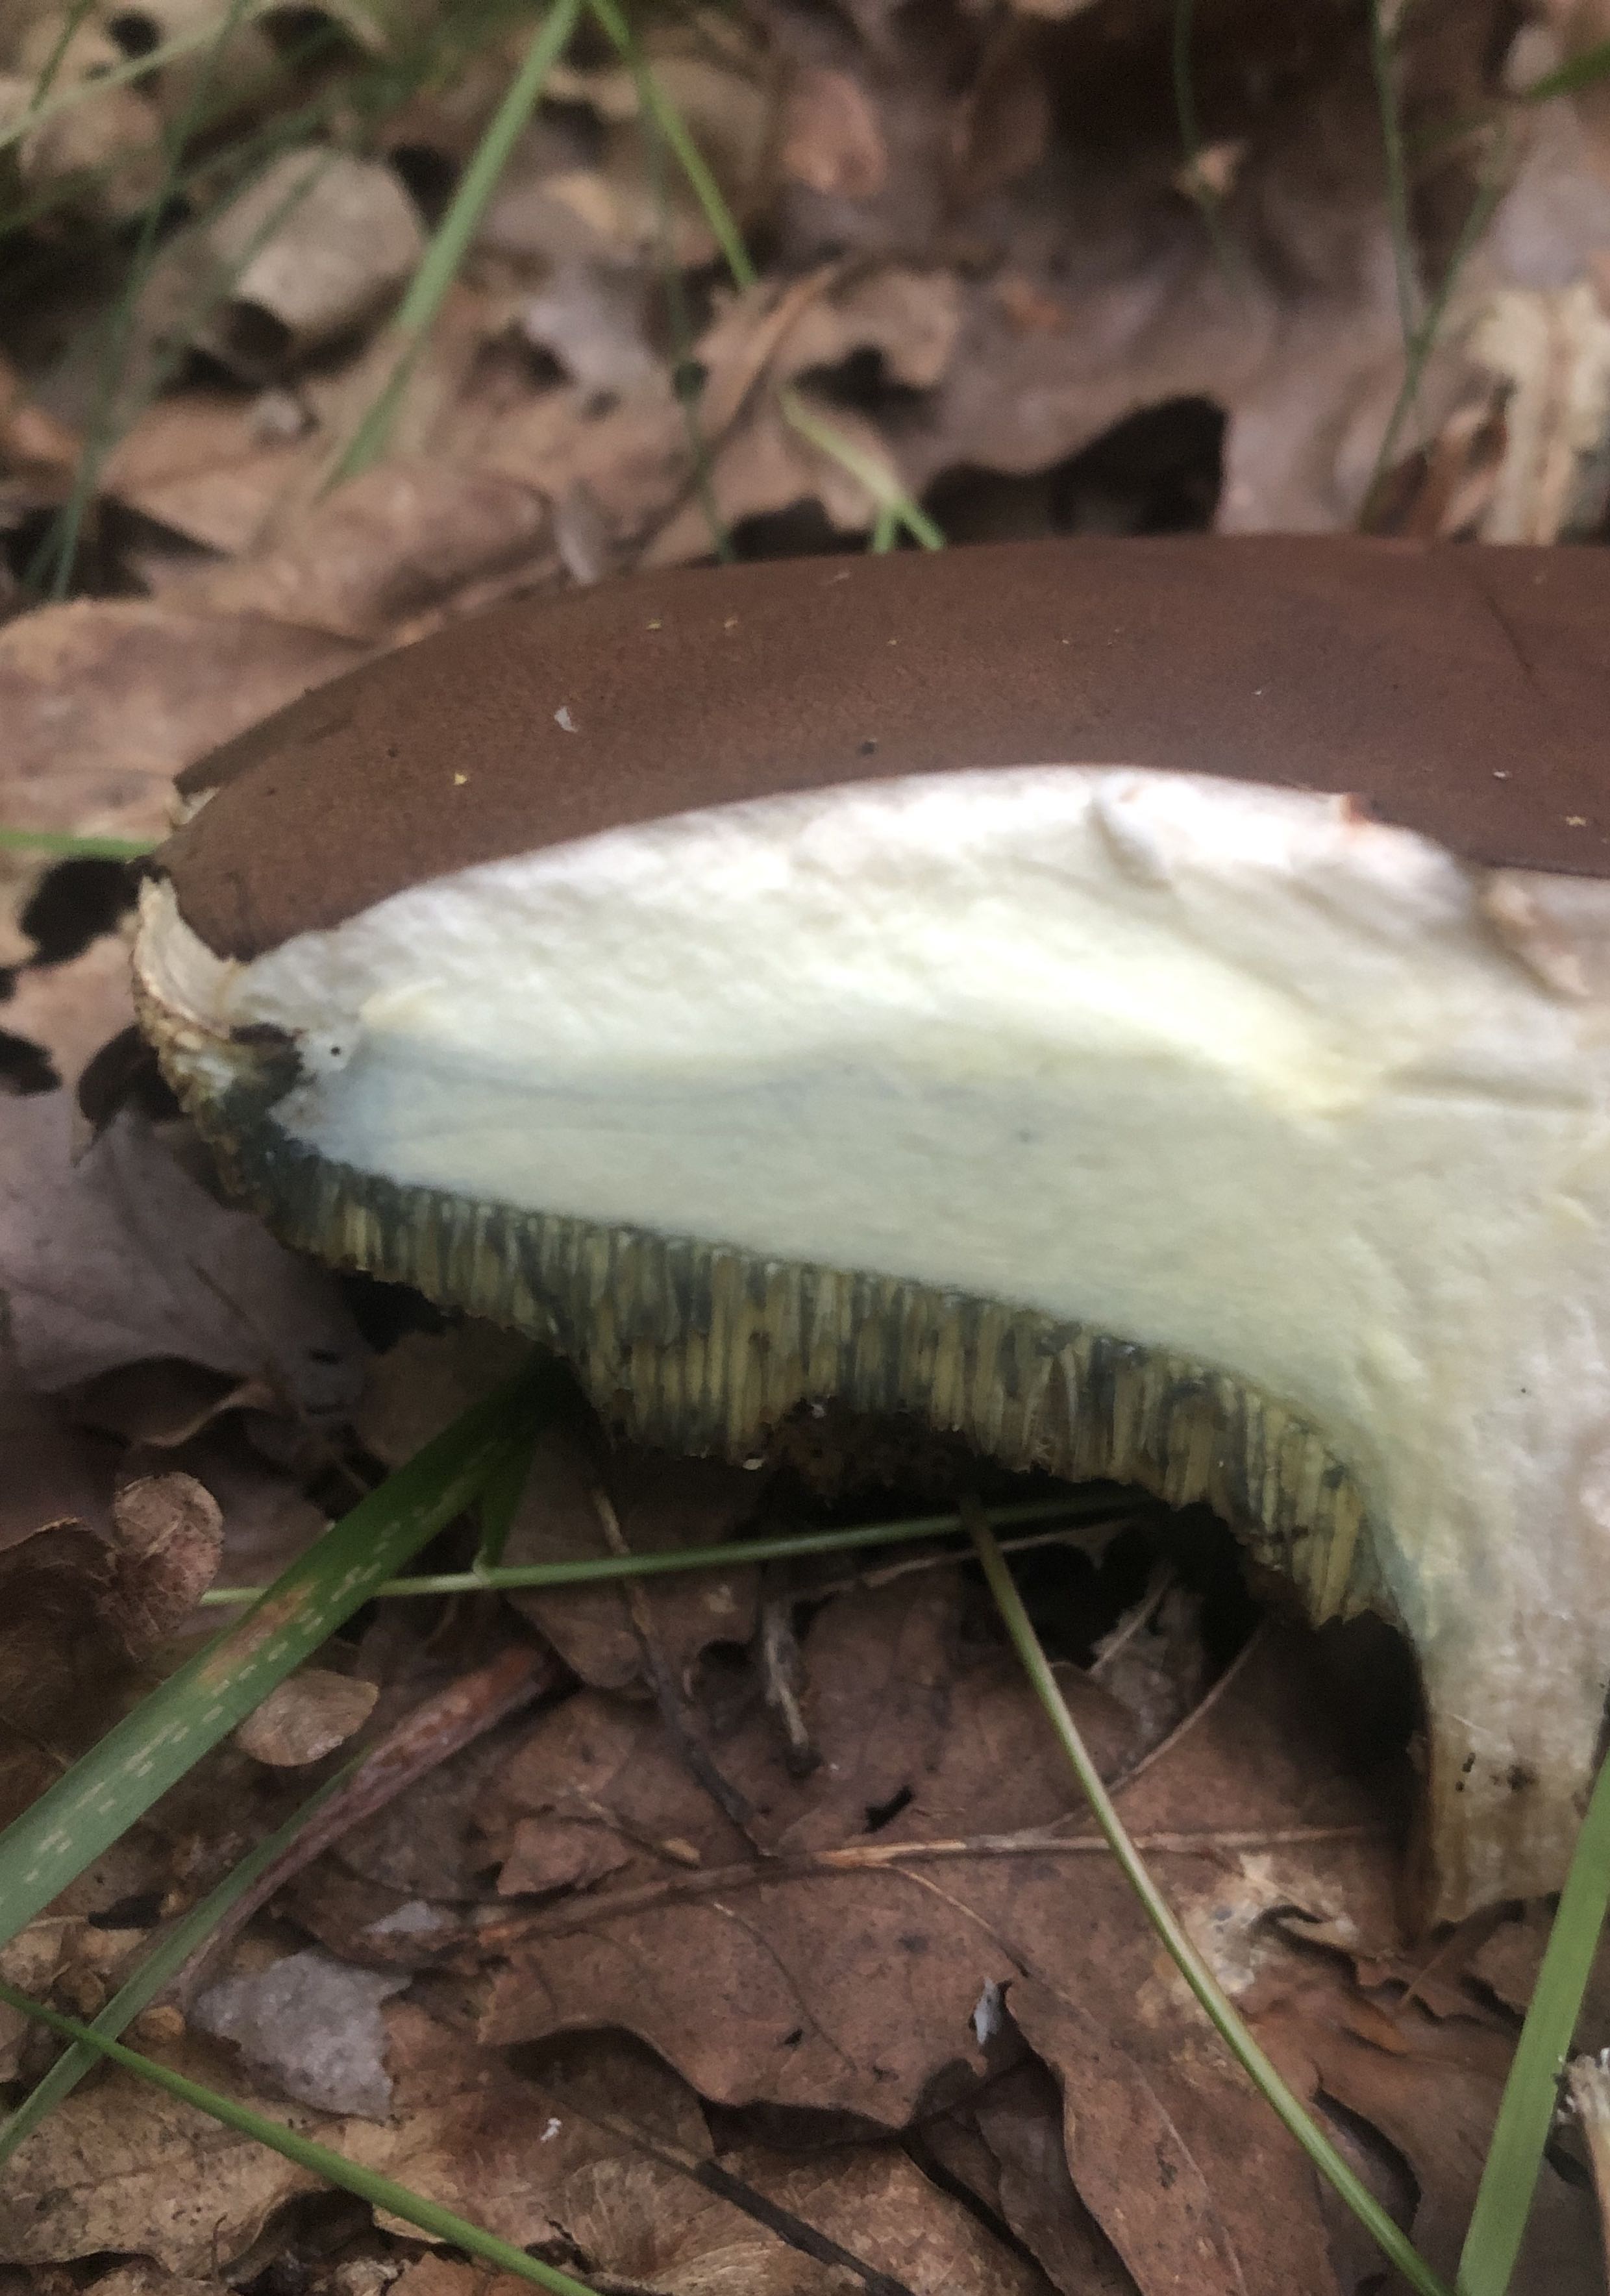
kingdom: Fungi
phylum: Basidiomycota
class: Agaricomycetes
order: Boletales
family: Boletaceae
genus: Imleria
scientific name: Imleria badia
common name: brunstokket rørhat
